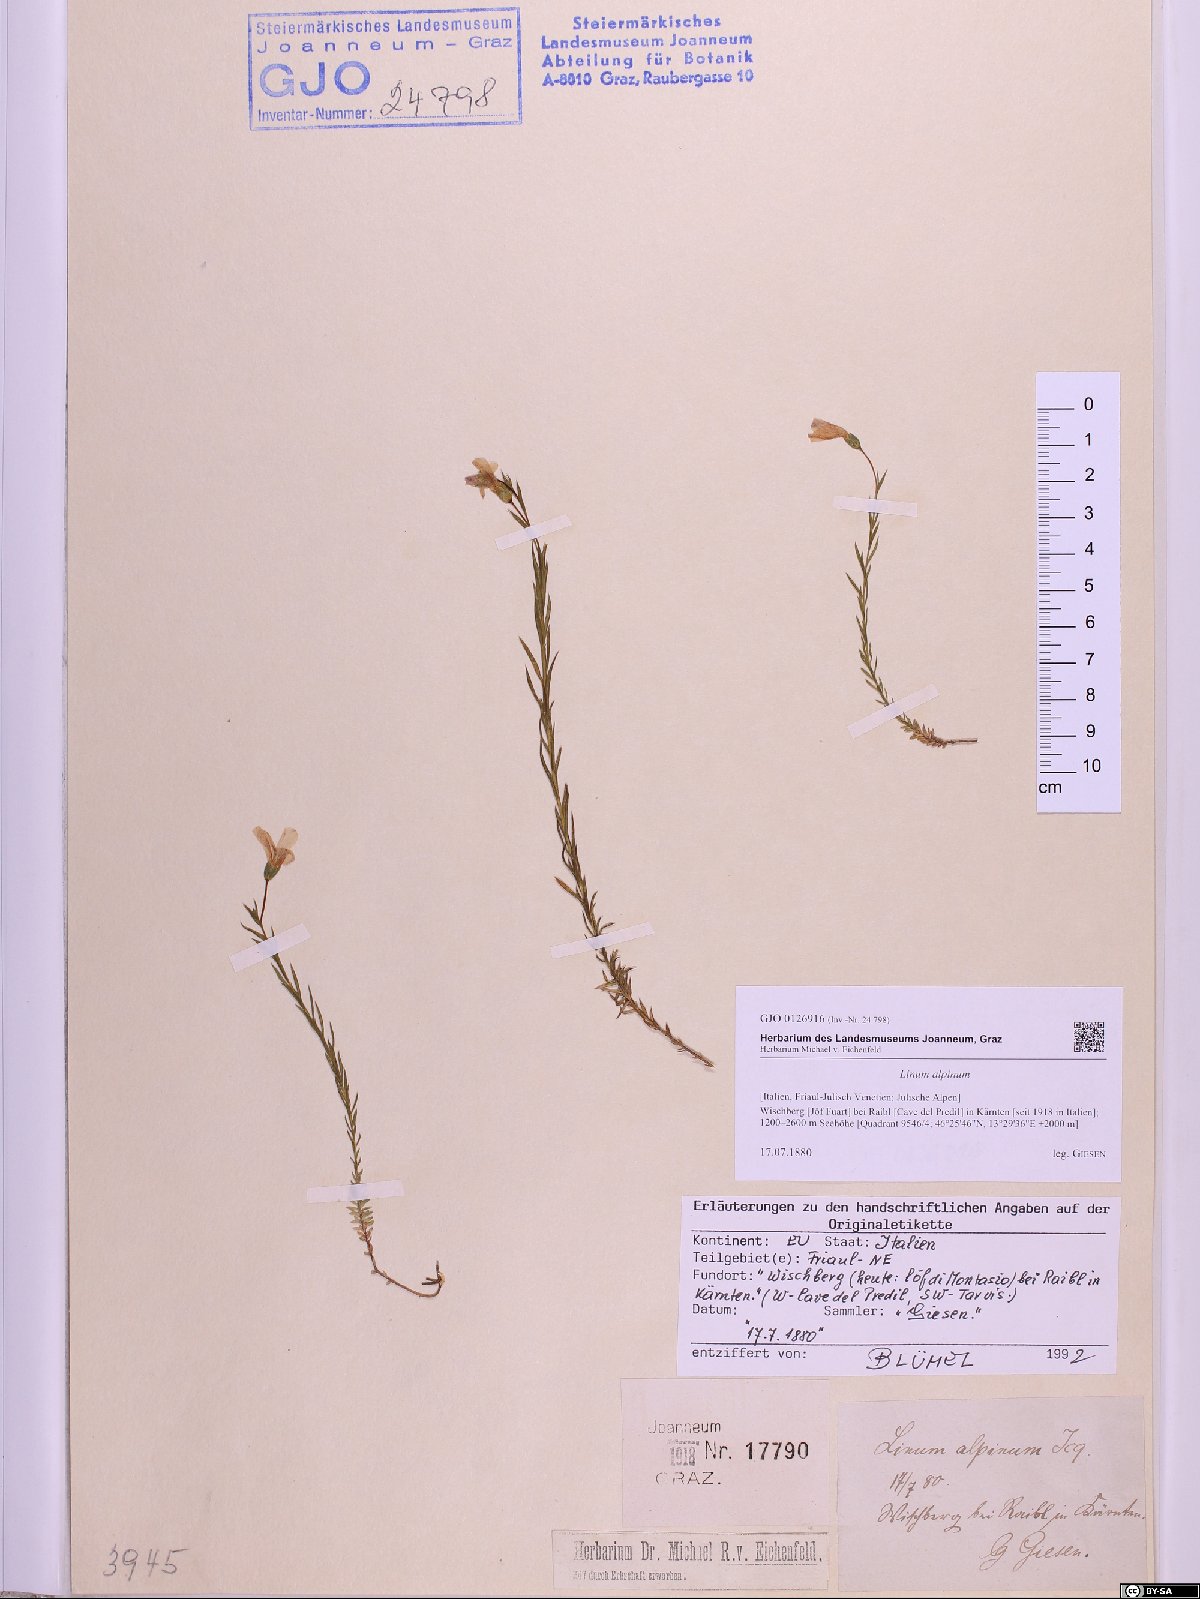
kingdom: Plantae
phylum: Tracheophyta
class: Magnoliopsida
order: Malpighiales
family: Linaceae
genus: Linum
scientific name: Linum alpinum
